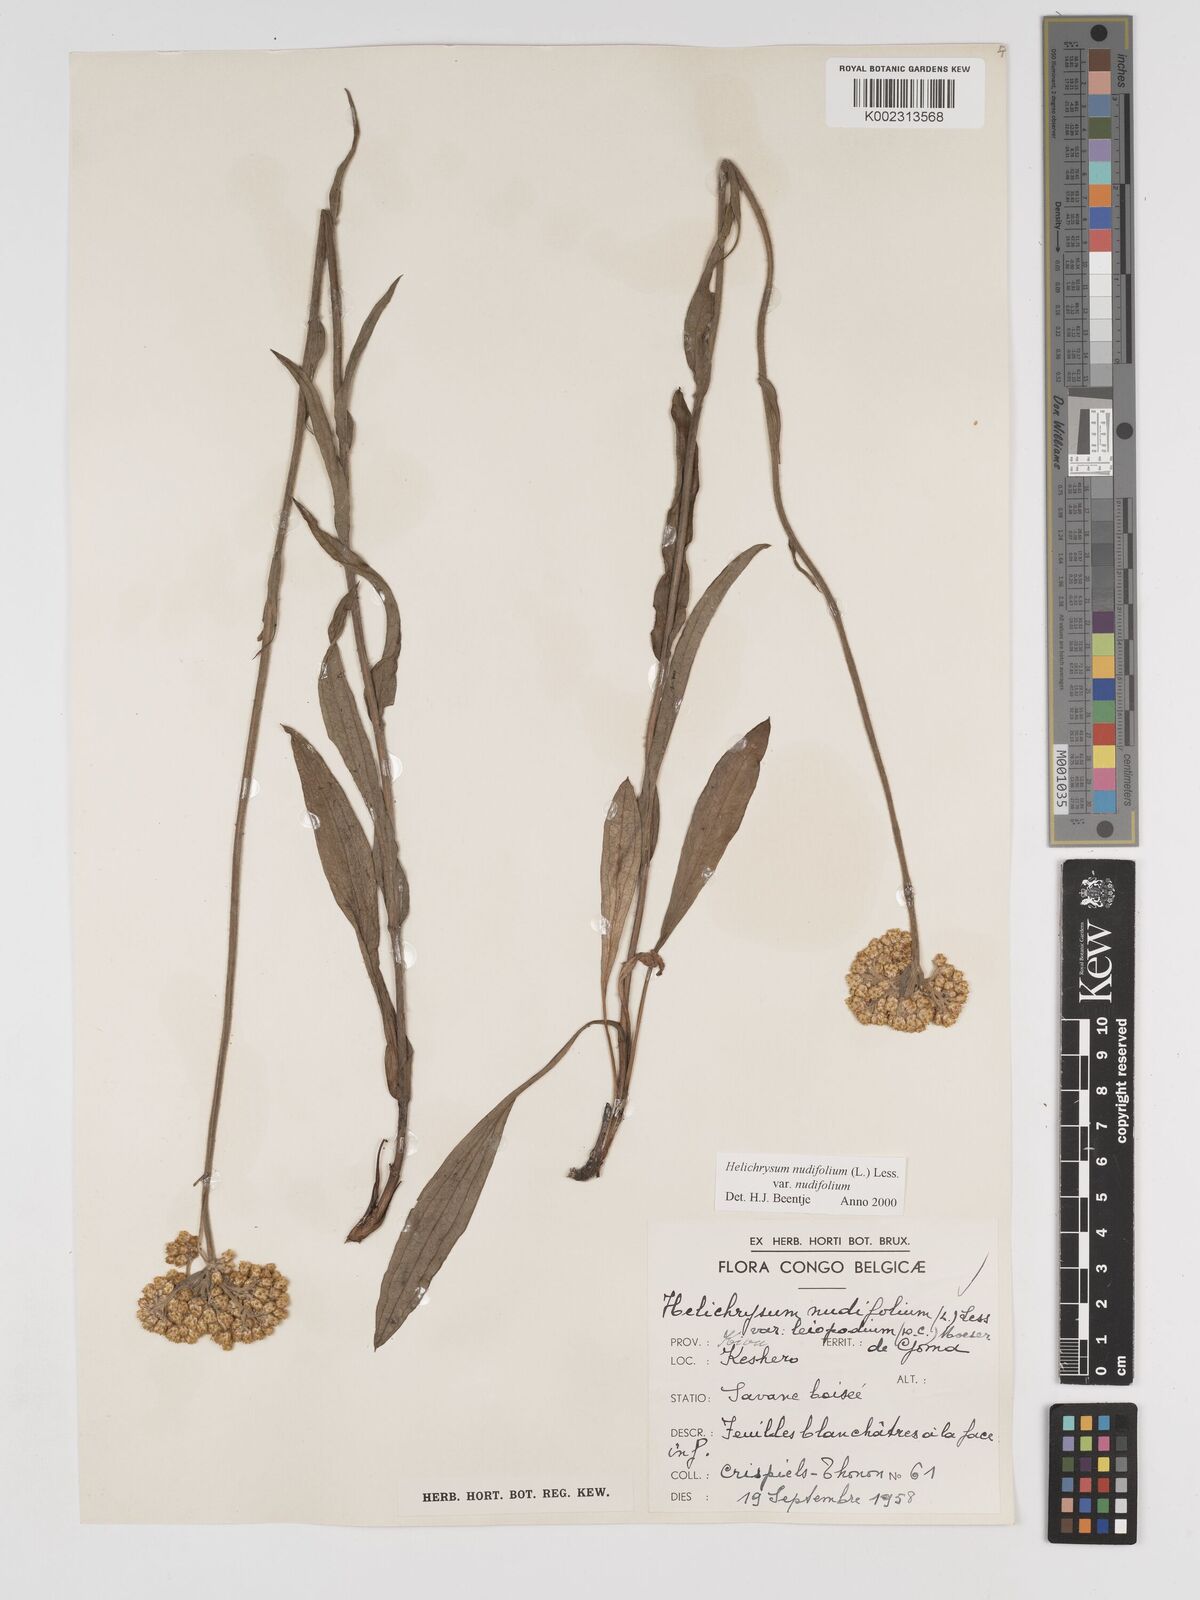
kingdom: Plantae
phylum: Tracheophyta
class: Magnoliopsida
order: Asterales
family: Asteraceae
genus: Helichrysum
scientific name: Helichrysum nudifolium
